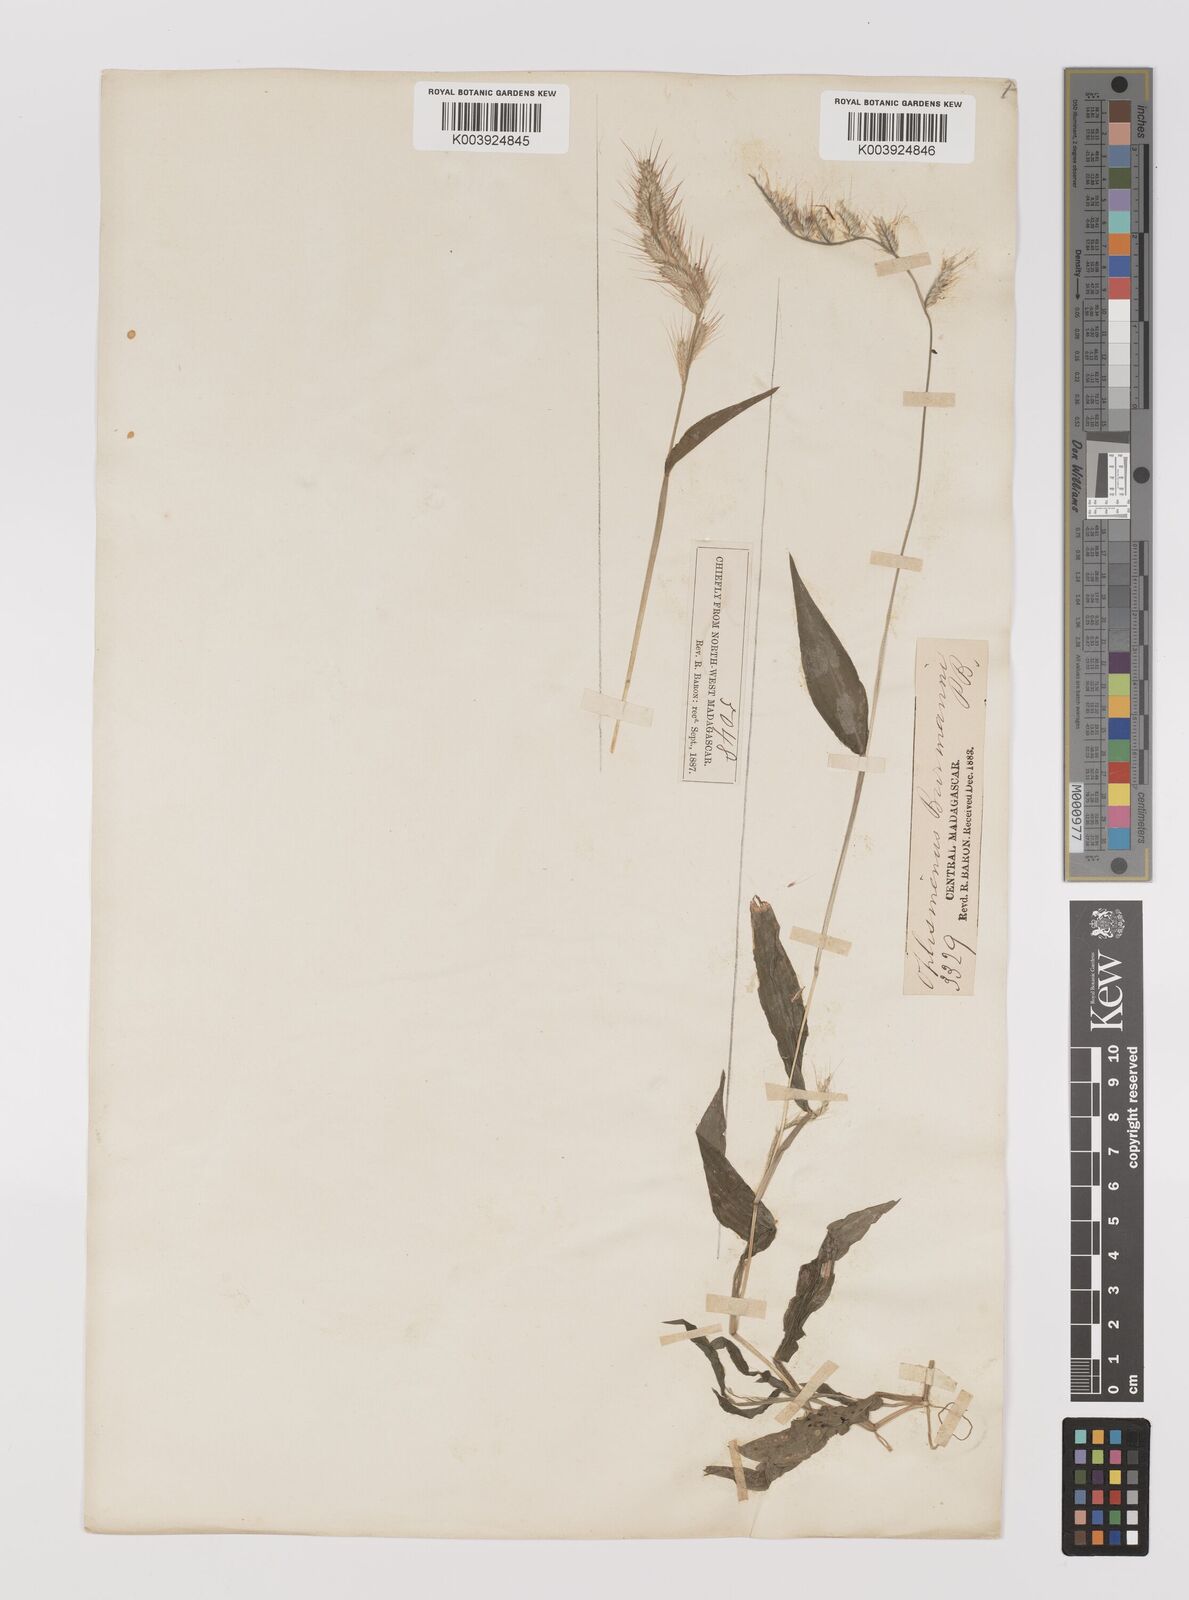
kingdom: Plantae
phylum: Tracheophyta
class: Liliopsida
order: Poales
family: Poaceae
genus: Oplismenus
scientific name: Oplismenus burmanni
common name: Burmann's basketgrass
